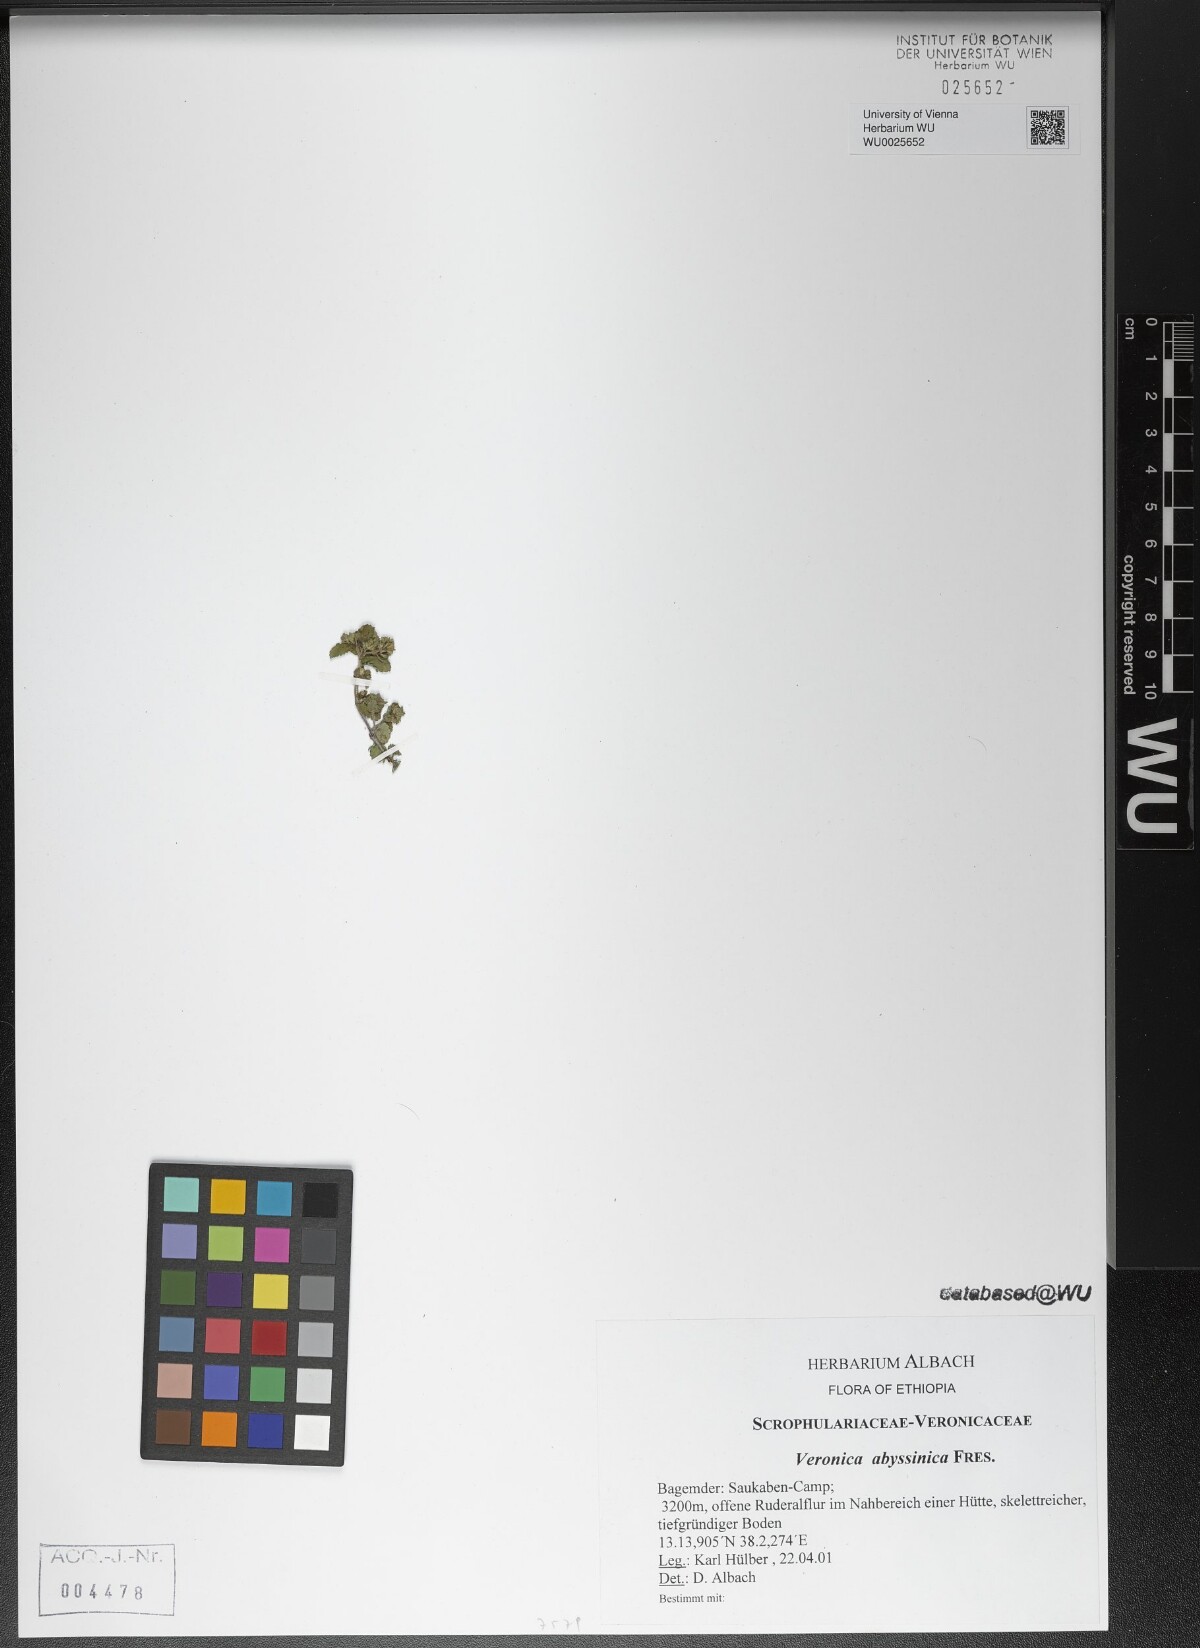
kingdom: Plantae
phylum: Tracheophyta
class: Magnoliopsida
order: Lamiales
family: Plantaginaceae
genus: Veronica
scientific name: Veronica abyssinica
